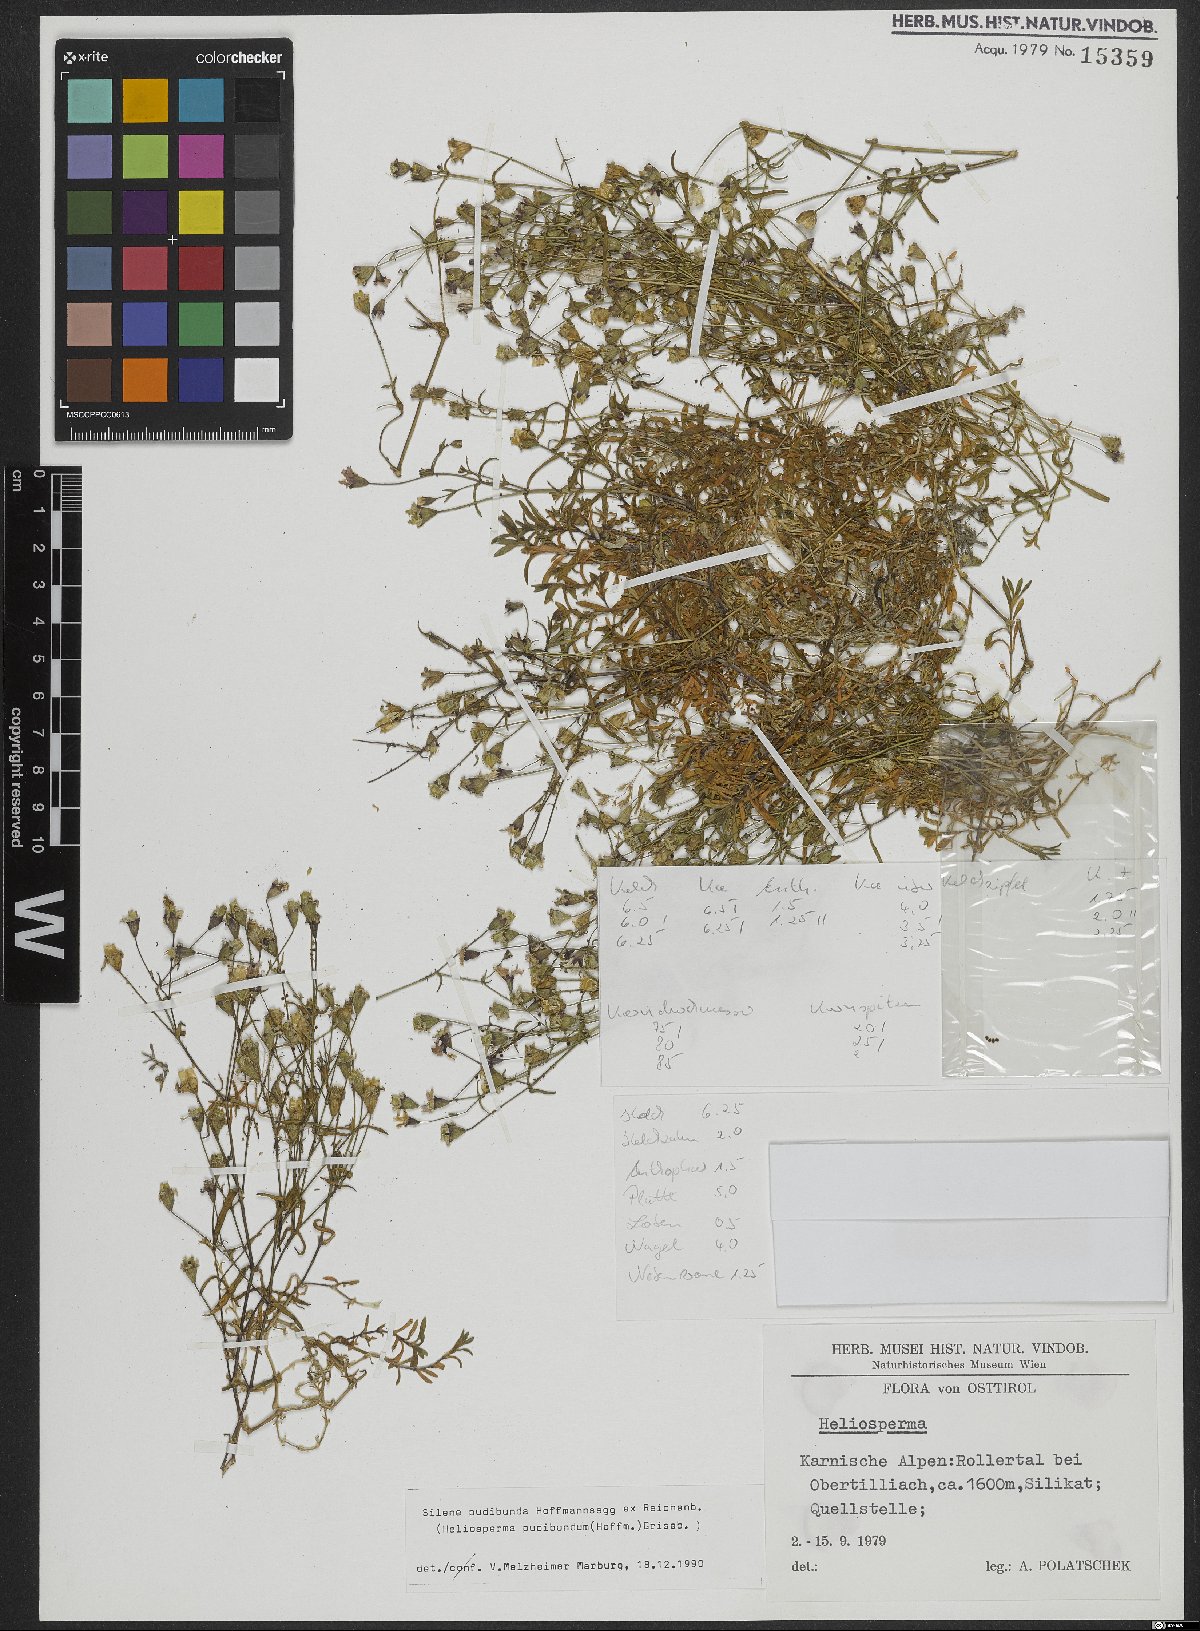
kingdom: Plantae
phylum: Tracheophyta
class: Magnoliopsida
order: Caryophyllales
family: Caryophyllaceae
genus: Heliosperma
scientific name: Heliosperma pudibundum
